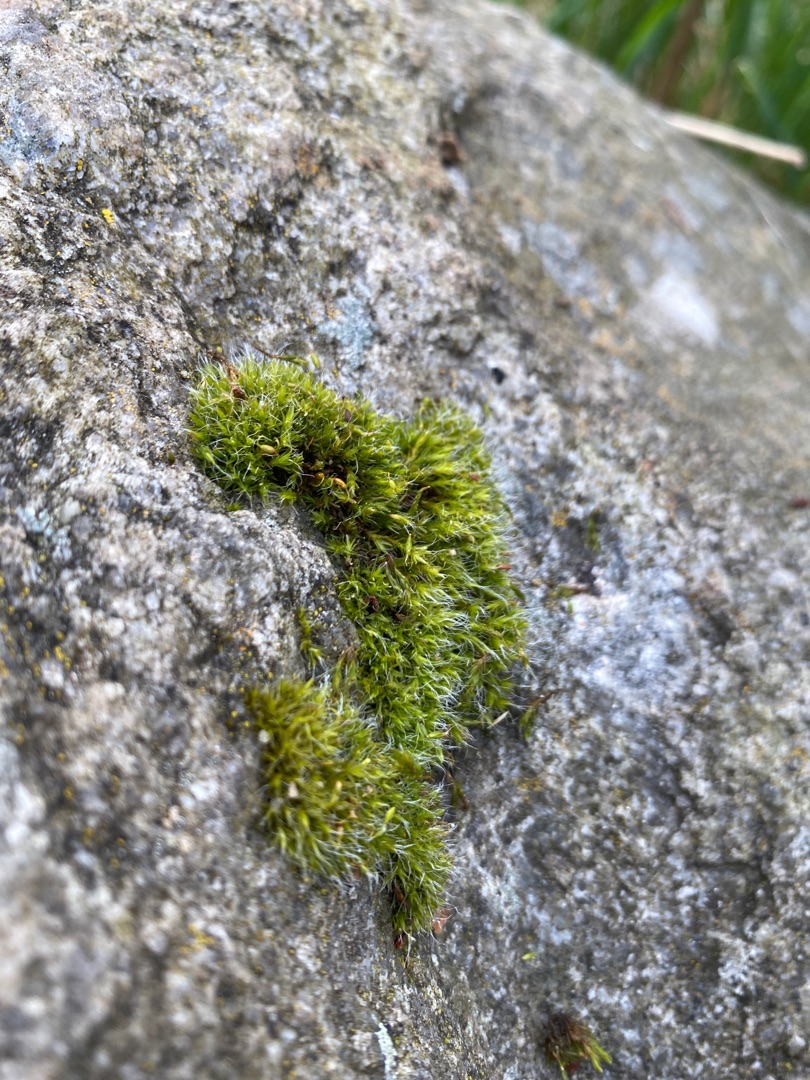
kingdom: Plantae
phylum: Bryophyta
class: Bryopsida
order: Grimmiales
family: Grimmiaceae
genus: Grimmia
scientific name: Grimmia pulvinata
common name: Pude-gråmos
